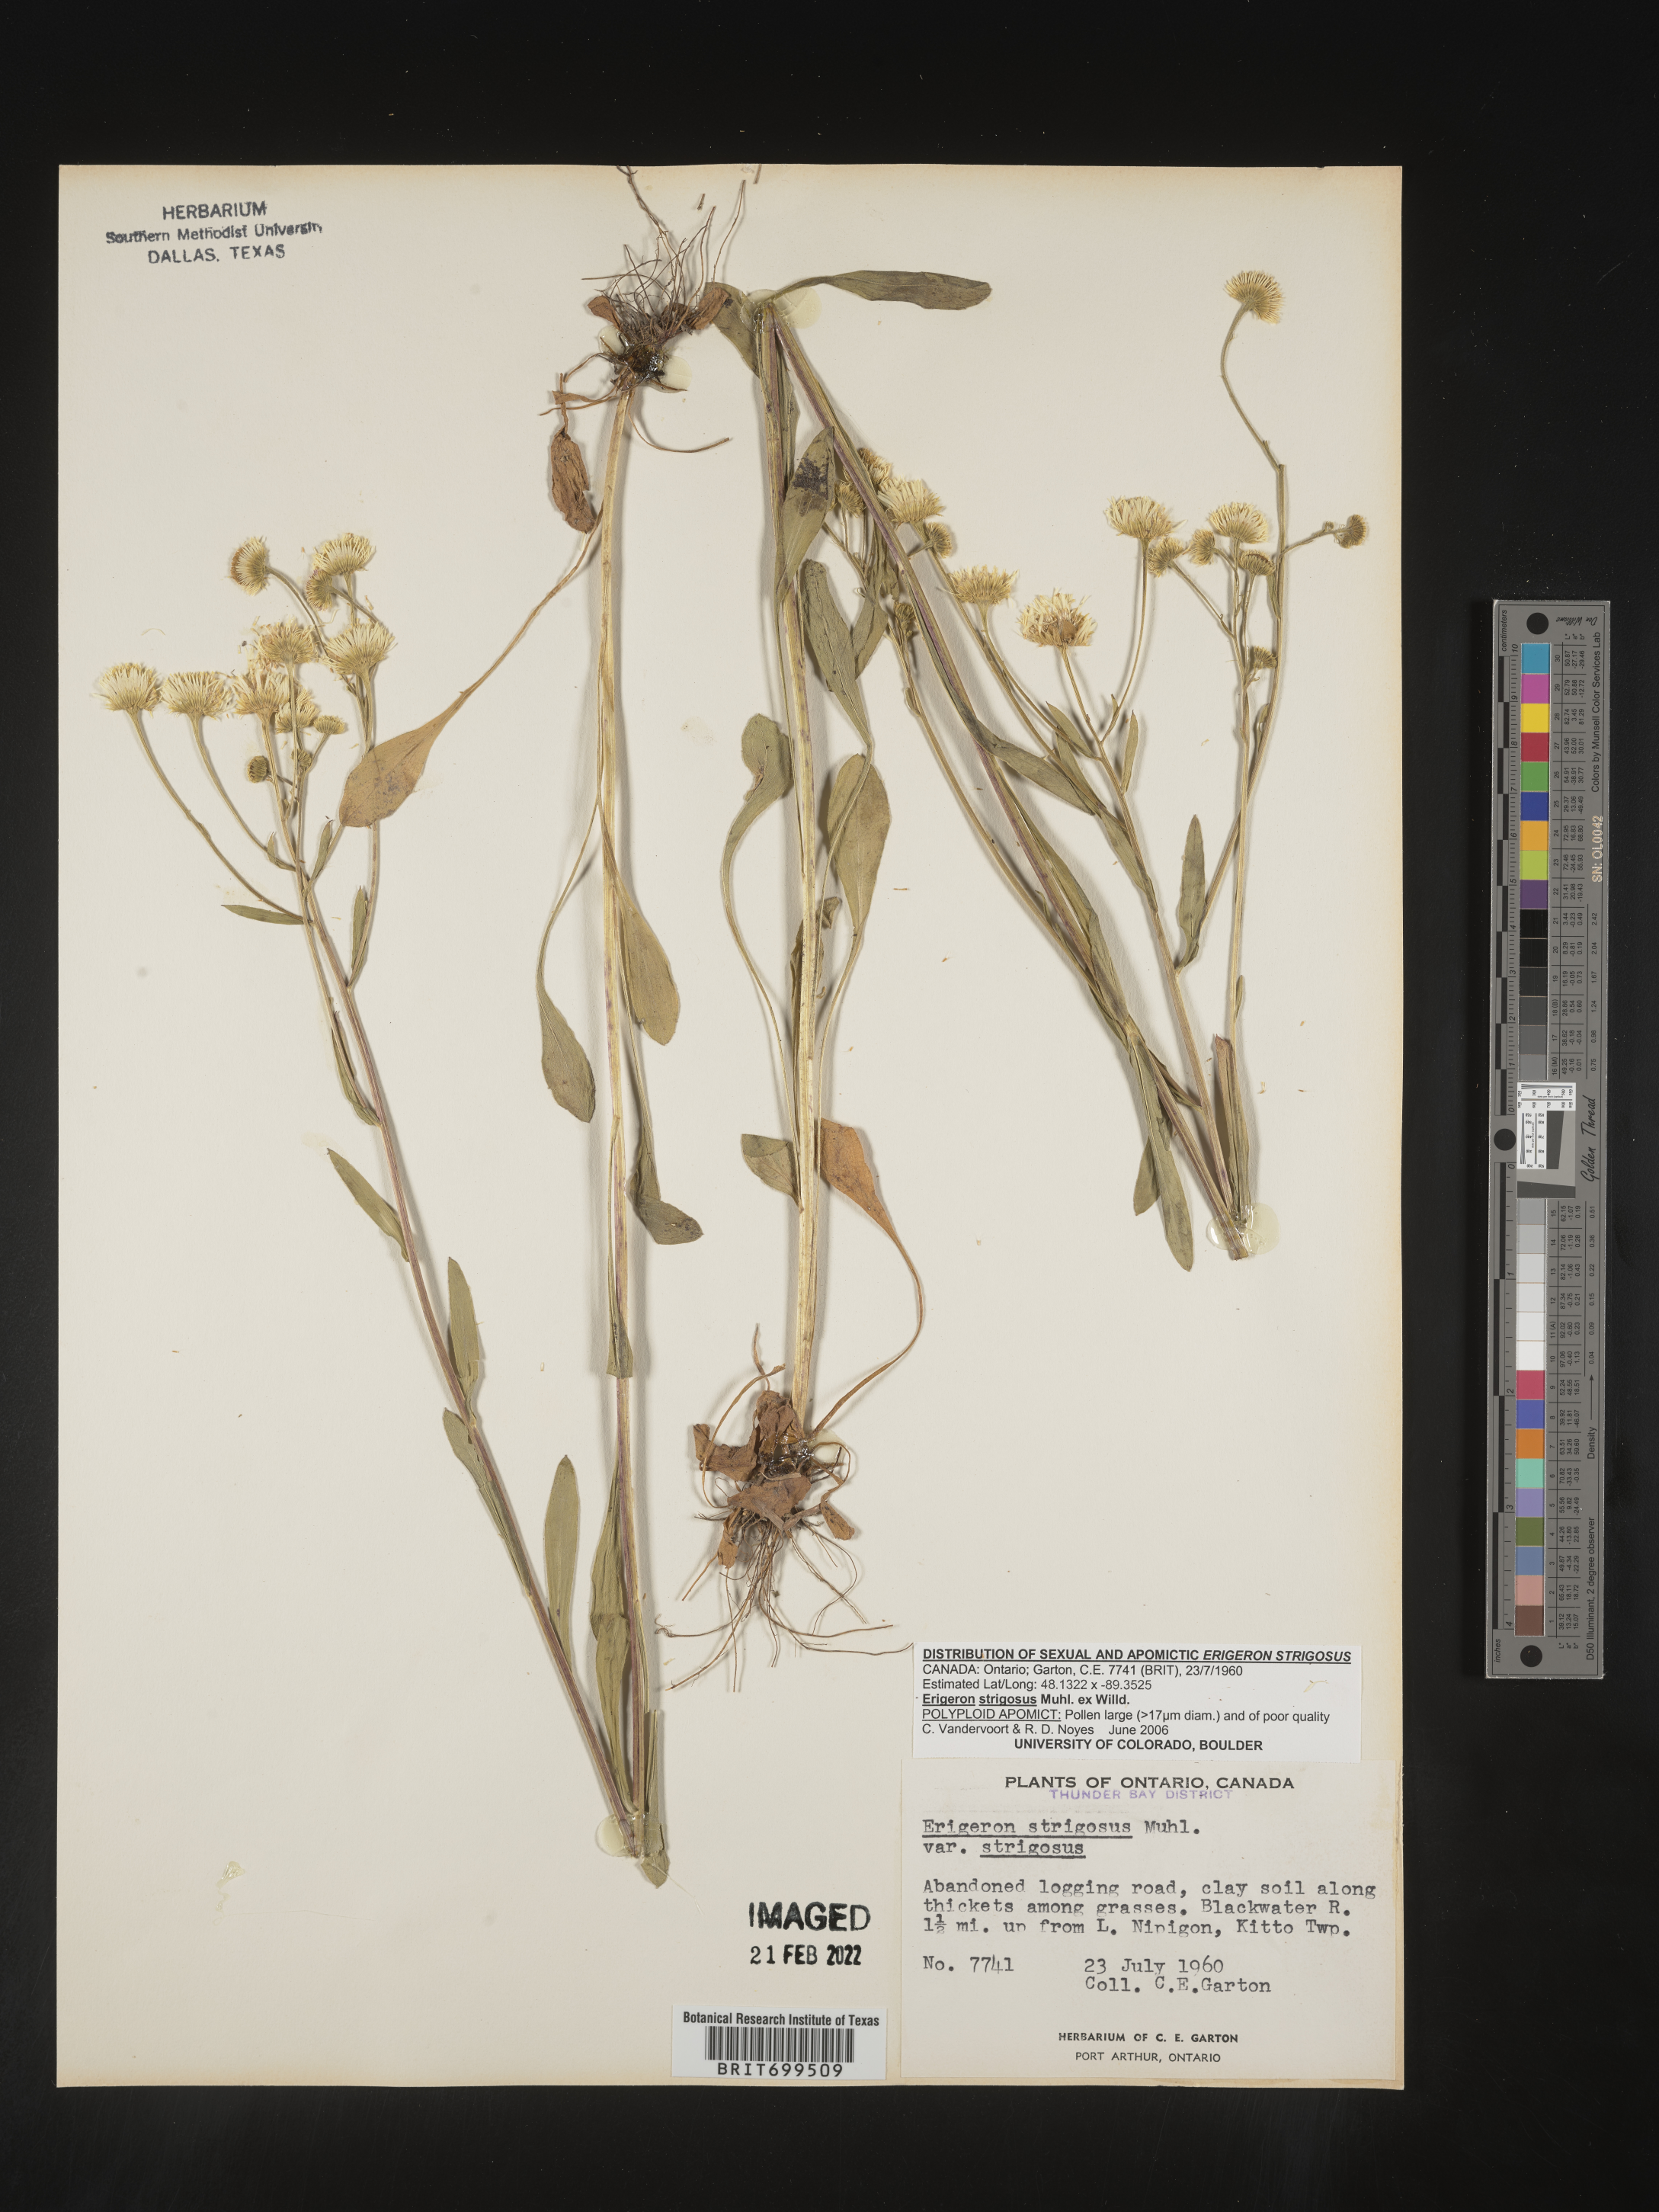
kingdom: Plantae
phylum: Tracheophyta
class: Magnoliopsida
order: Asterales
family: Asteraceae
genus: Erigeron
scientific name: Erigeron strigosus
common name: Common eastern fleabane
